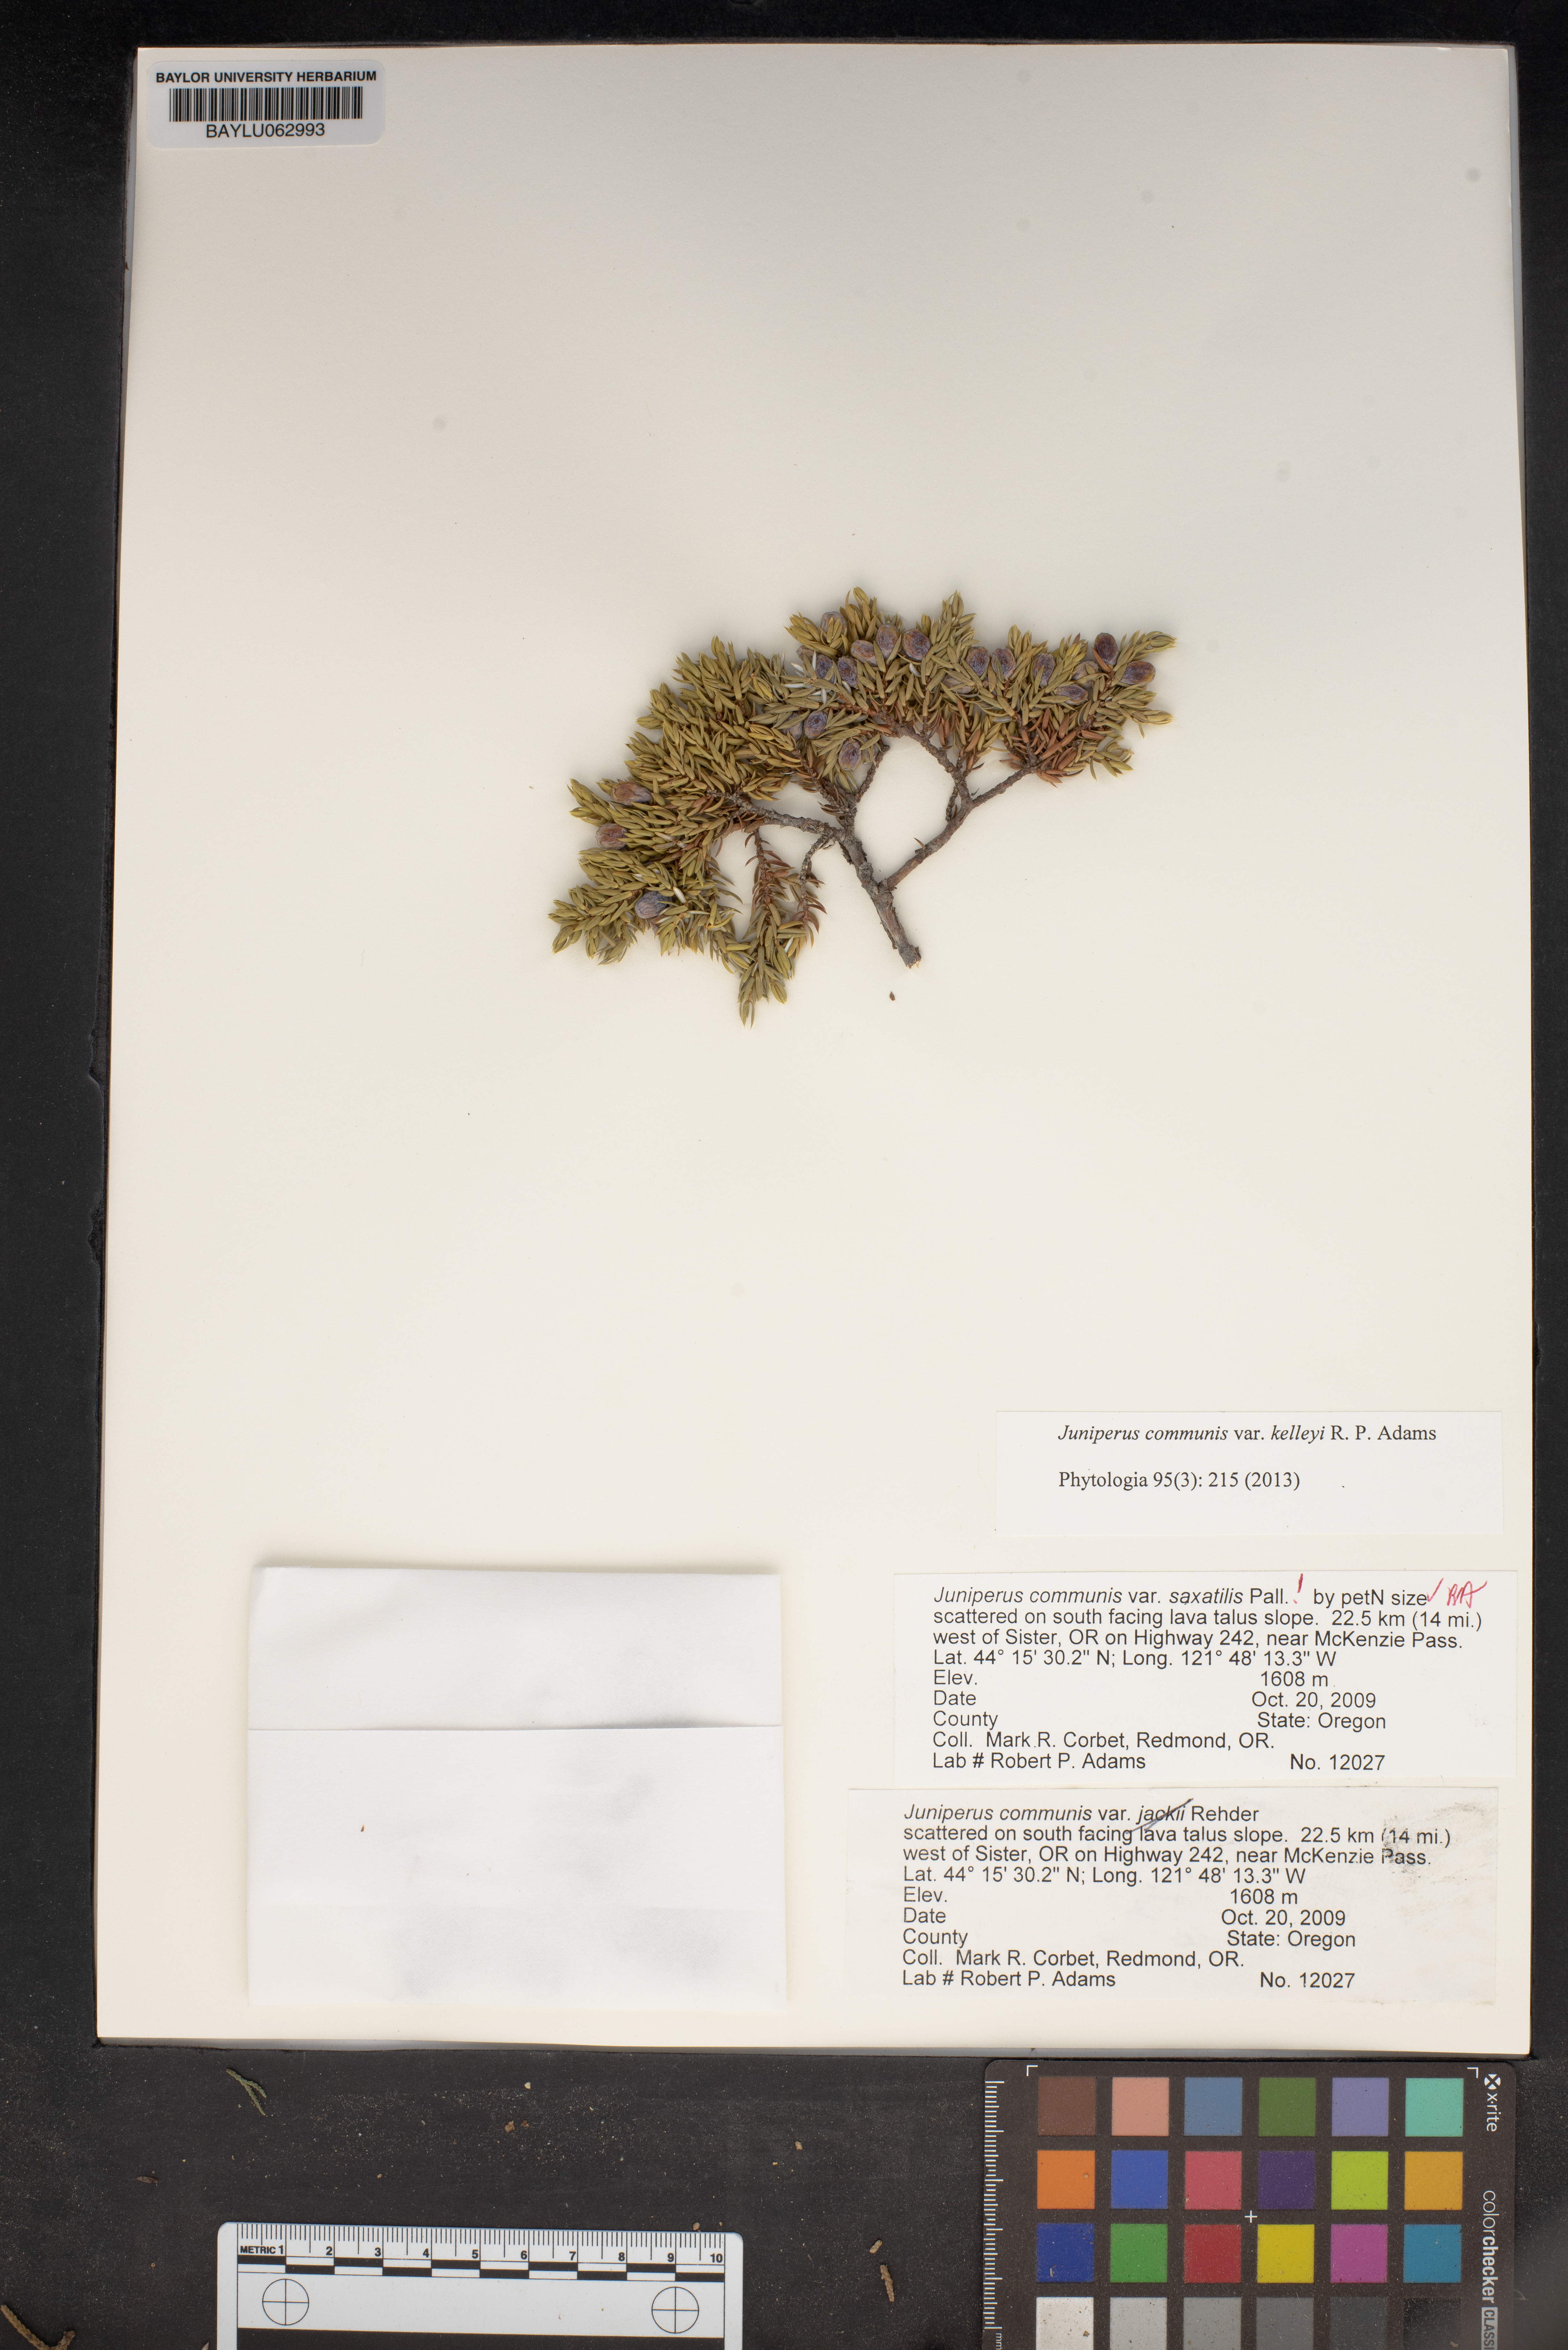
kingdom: Plantae
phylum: Tracheophyta
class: Pinopsida
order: Pinales
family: Cupressaceae
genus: Juniperus
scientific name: Juniperus communis
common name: Common juniper
